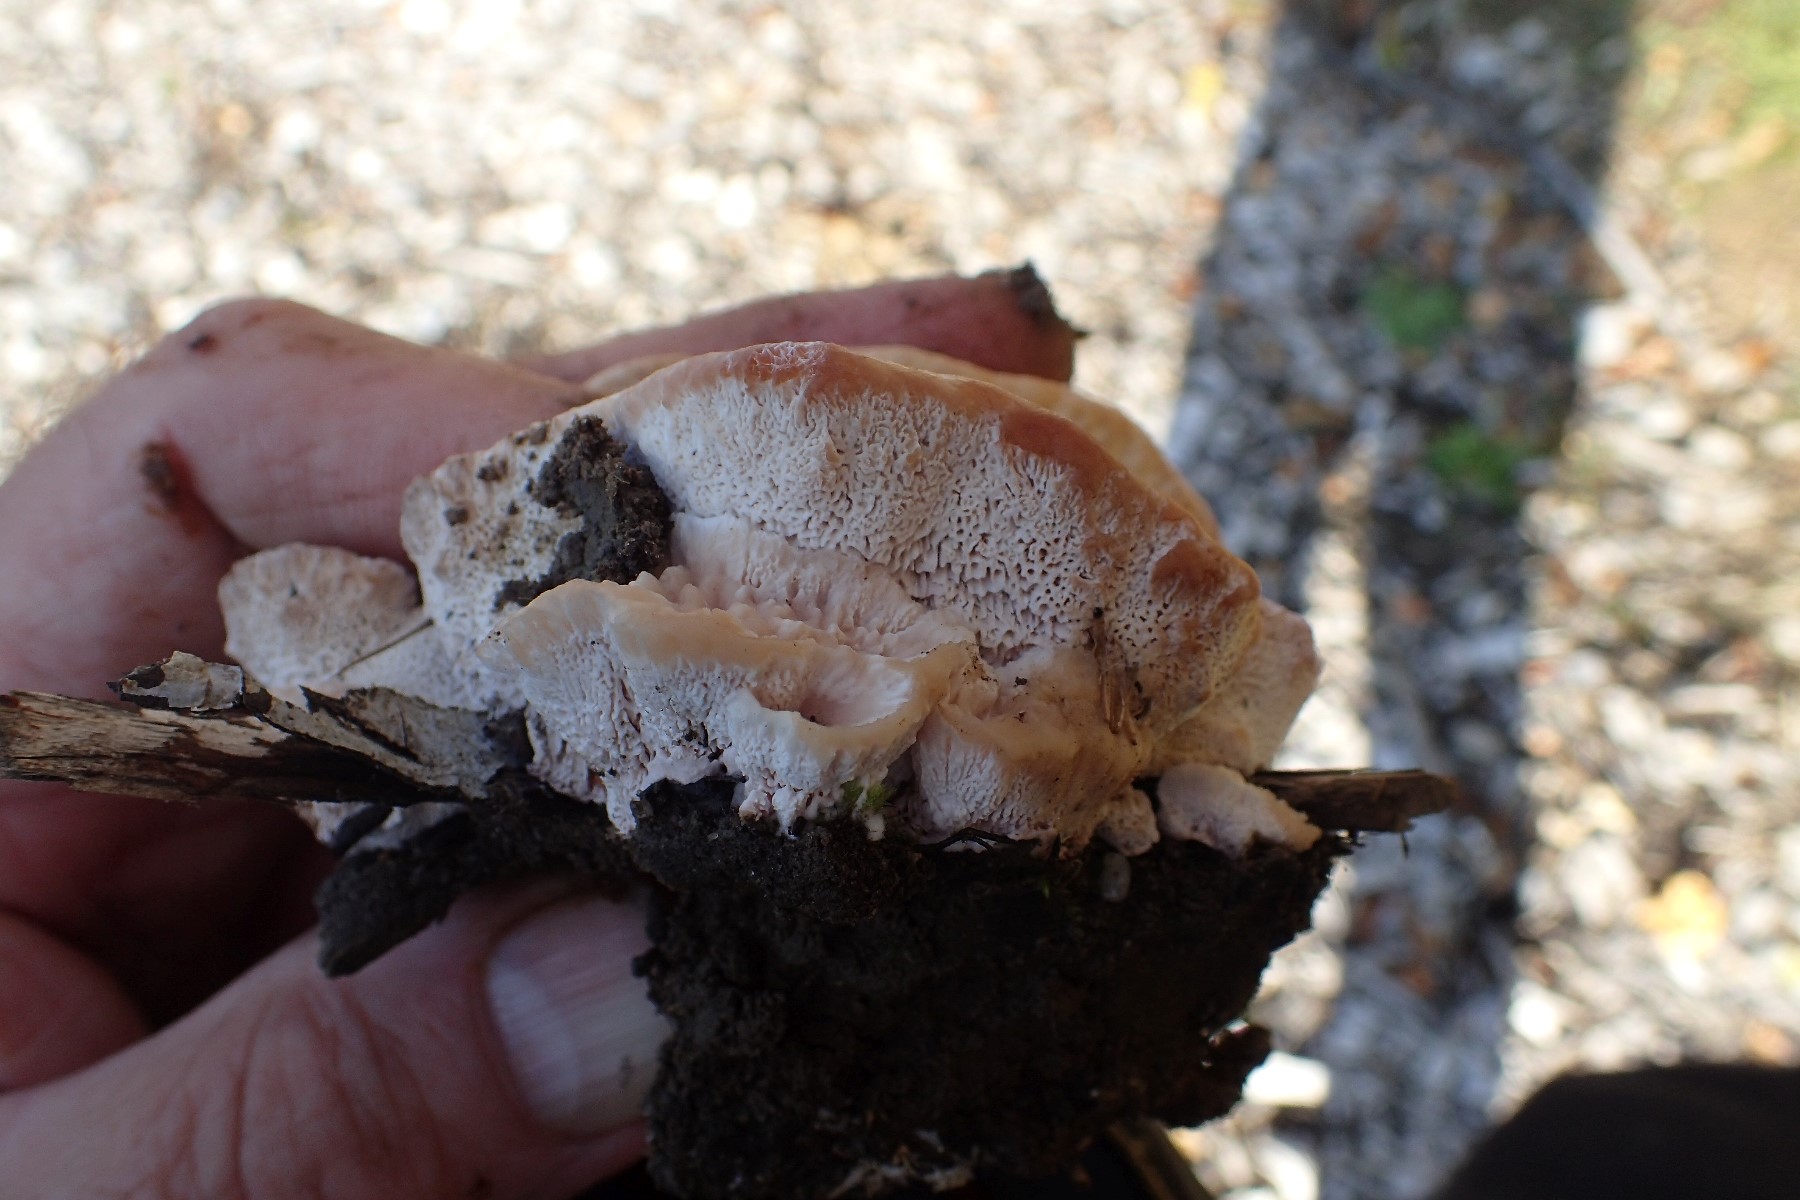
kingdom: Fungi
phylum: Basidiomycota
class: Agaricomycetes
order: Polyporales
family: Podoscyphaceae
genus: Abortiporus
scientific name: Abortiporus biennis
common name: rødmende pjalteporesvamp
